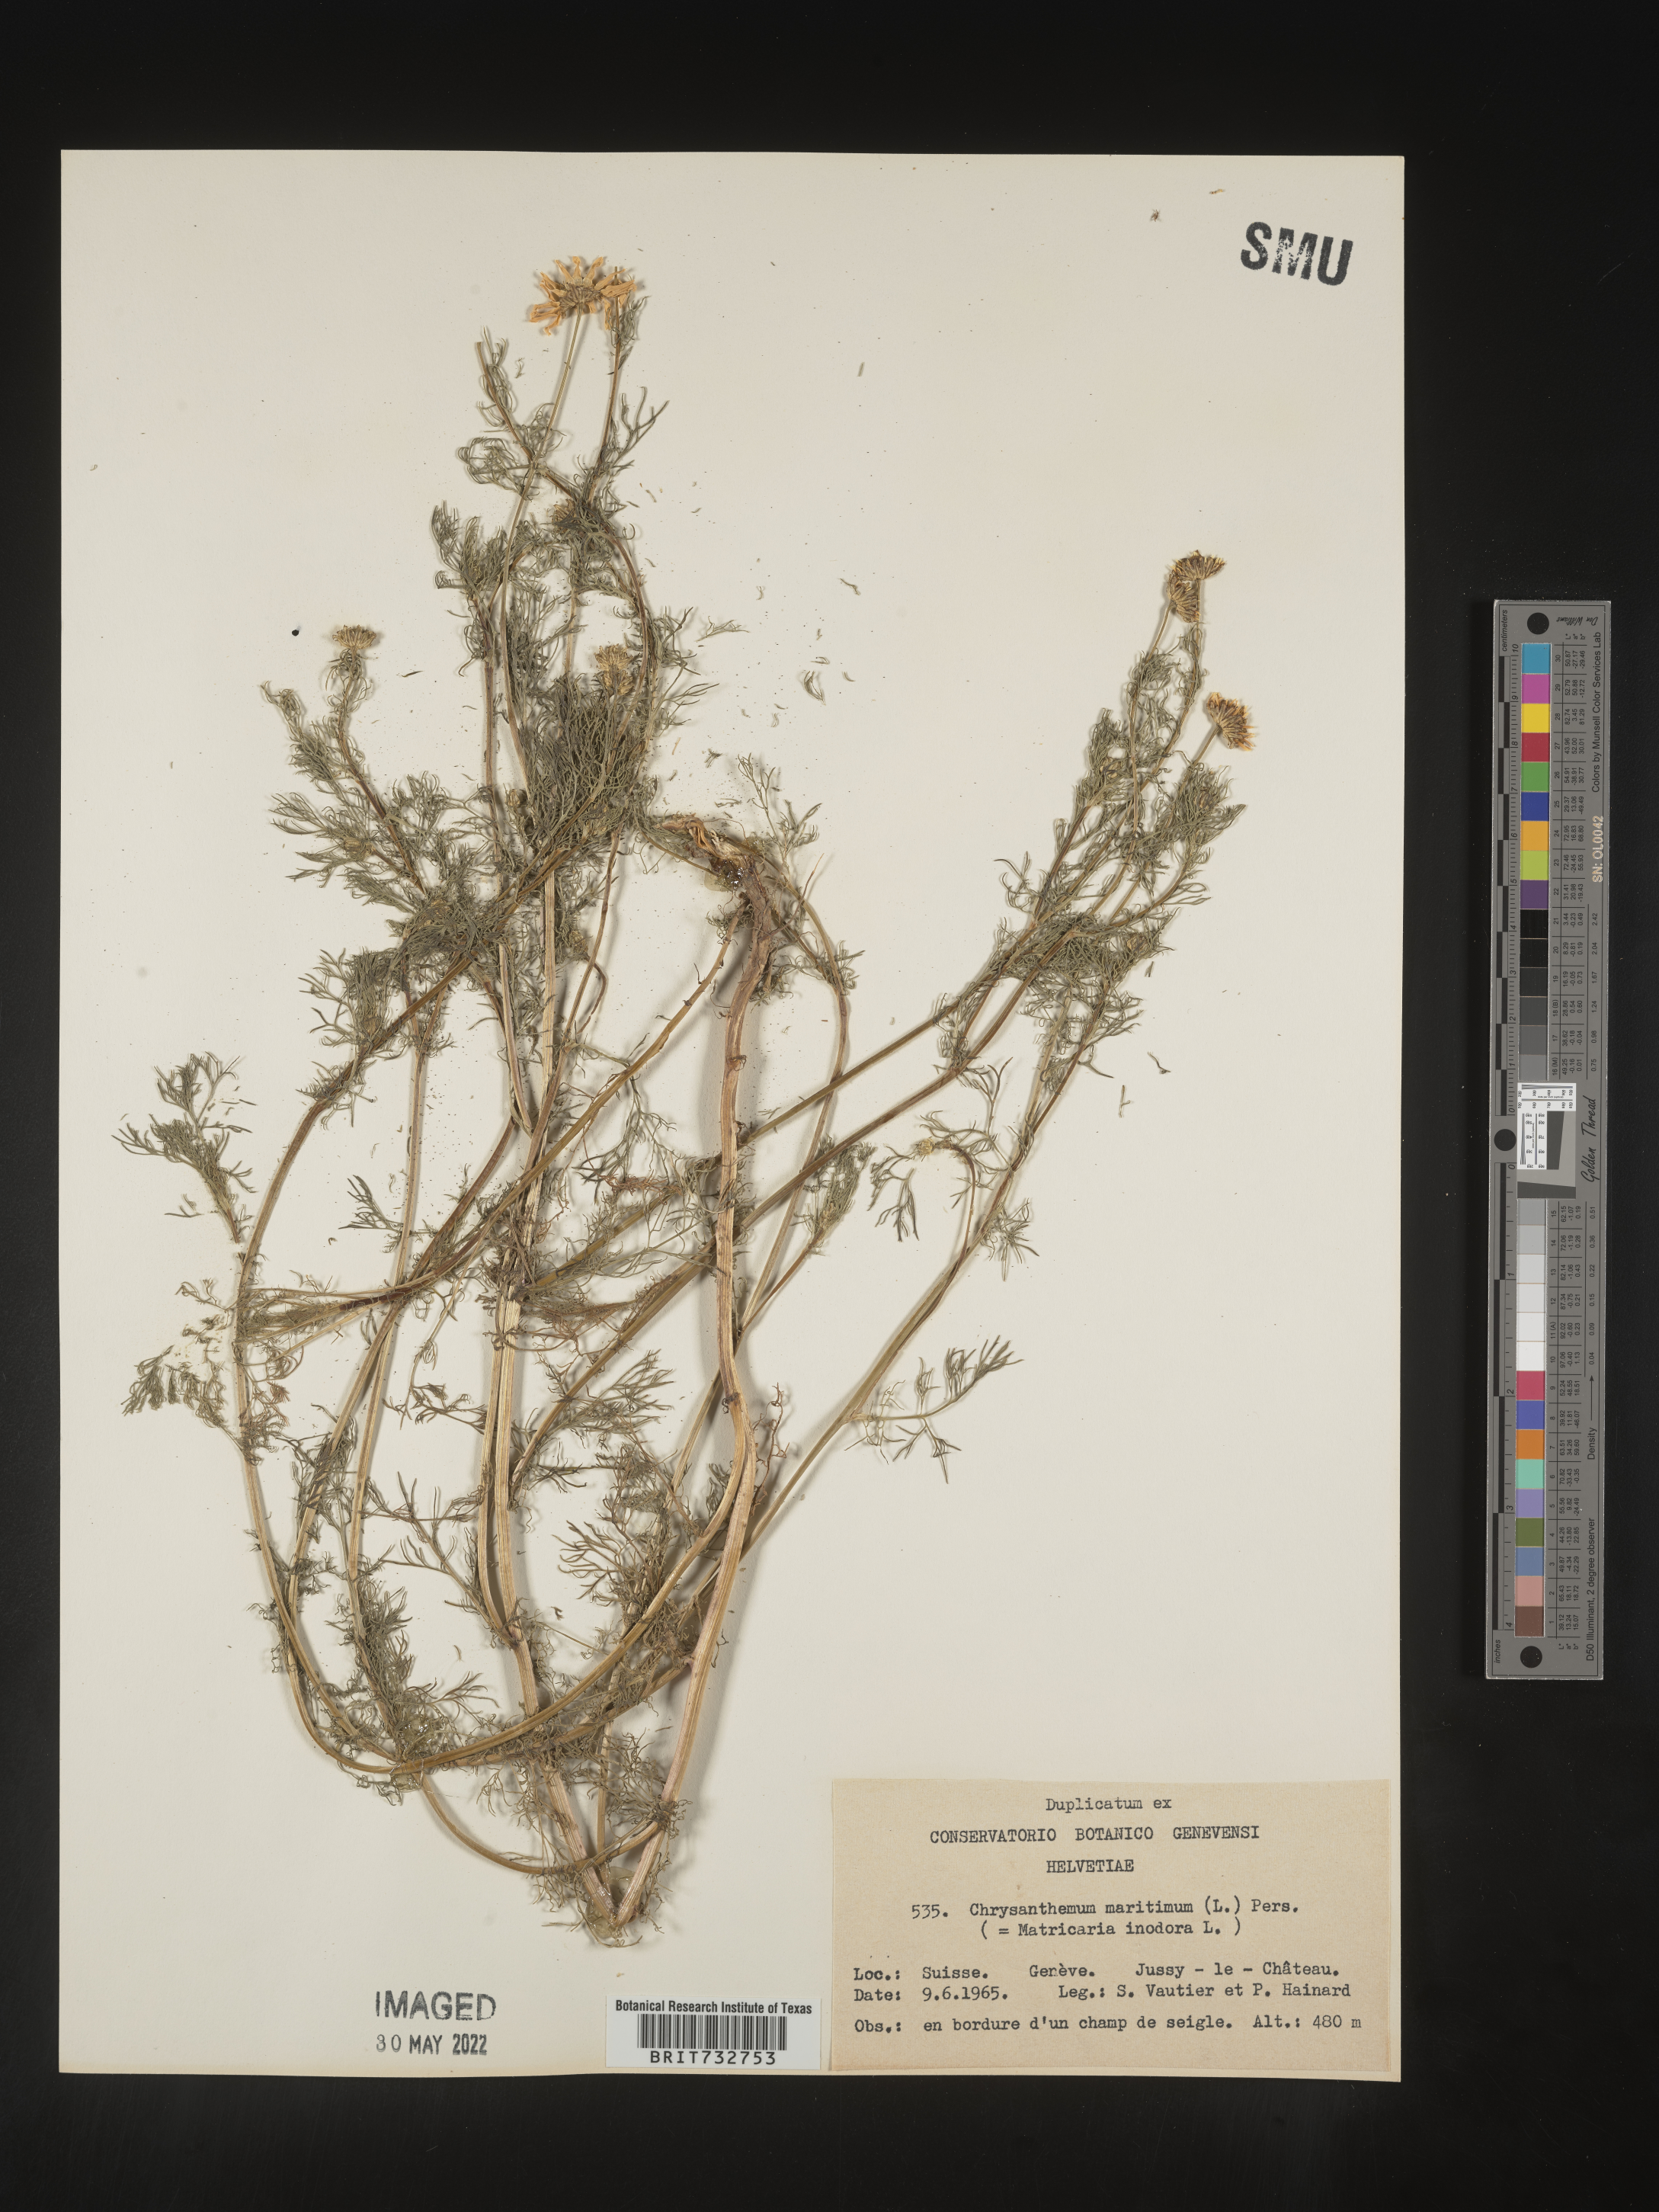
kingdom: Plantae
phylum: Tracheophyta
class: Magnoliopsida
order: Asterales
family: Asteraceae
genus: Matricaria
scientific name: Matricaria
